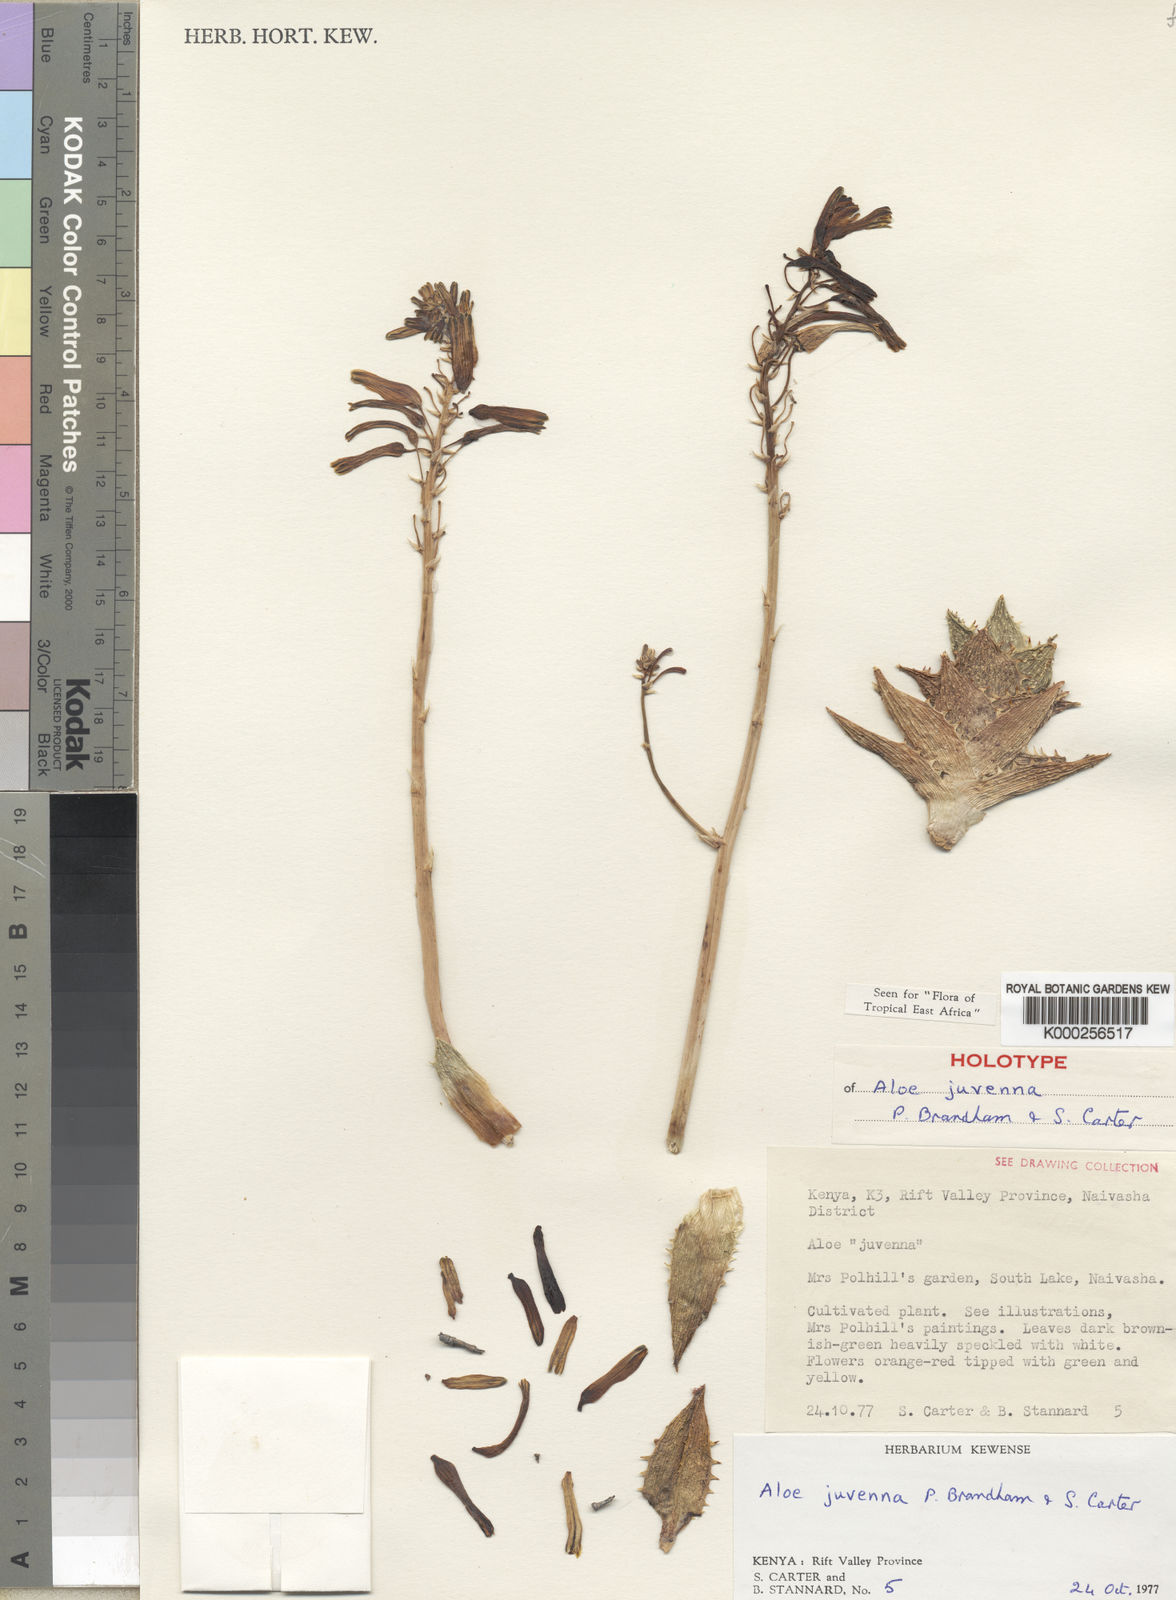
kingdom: Plantae
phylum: Tracheophyta
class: Liliopsida
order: Asparagales
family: Asphodelaceae
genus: Aloe
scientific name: Aloe juvenna
